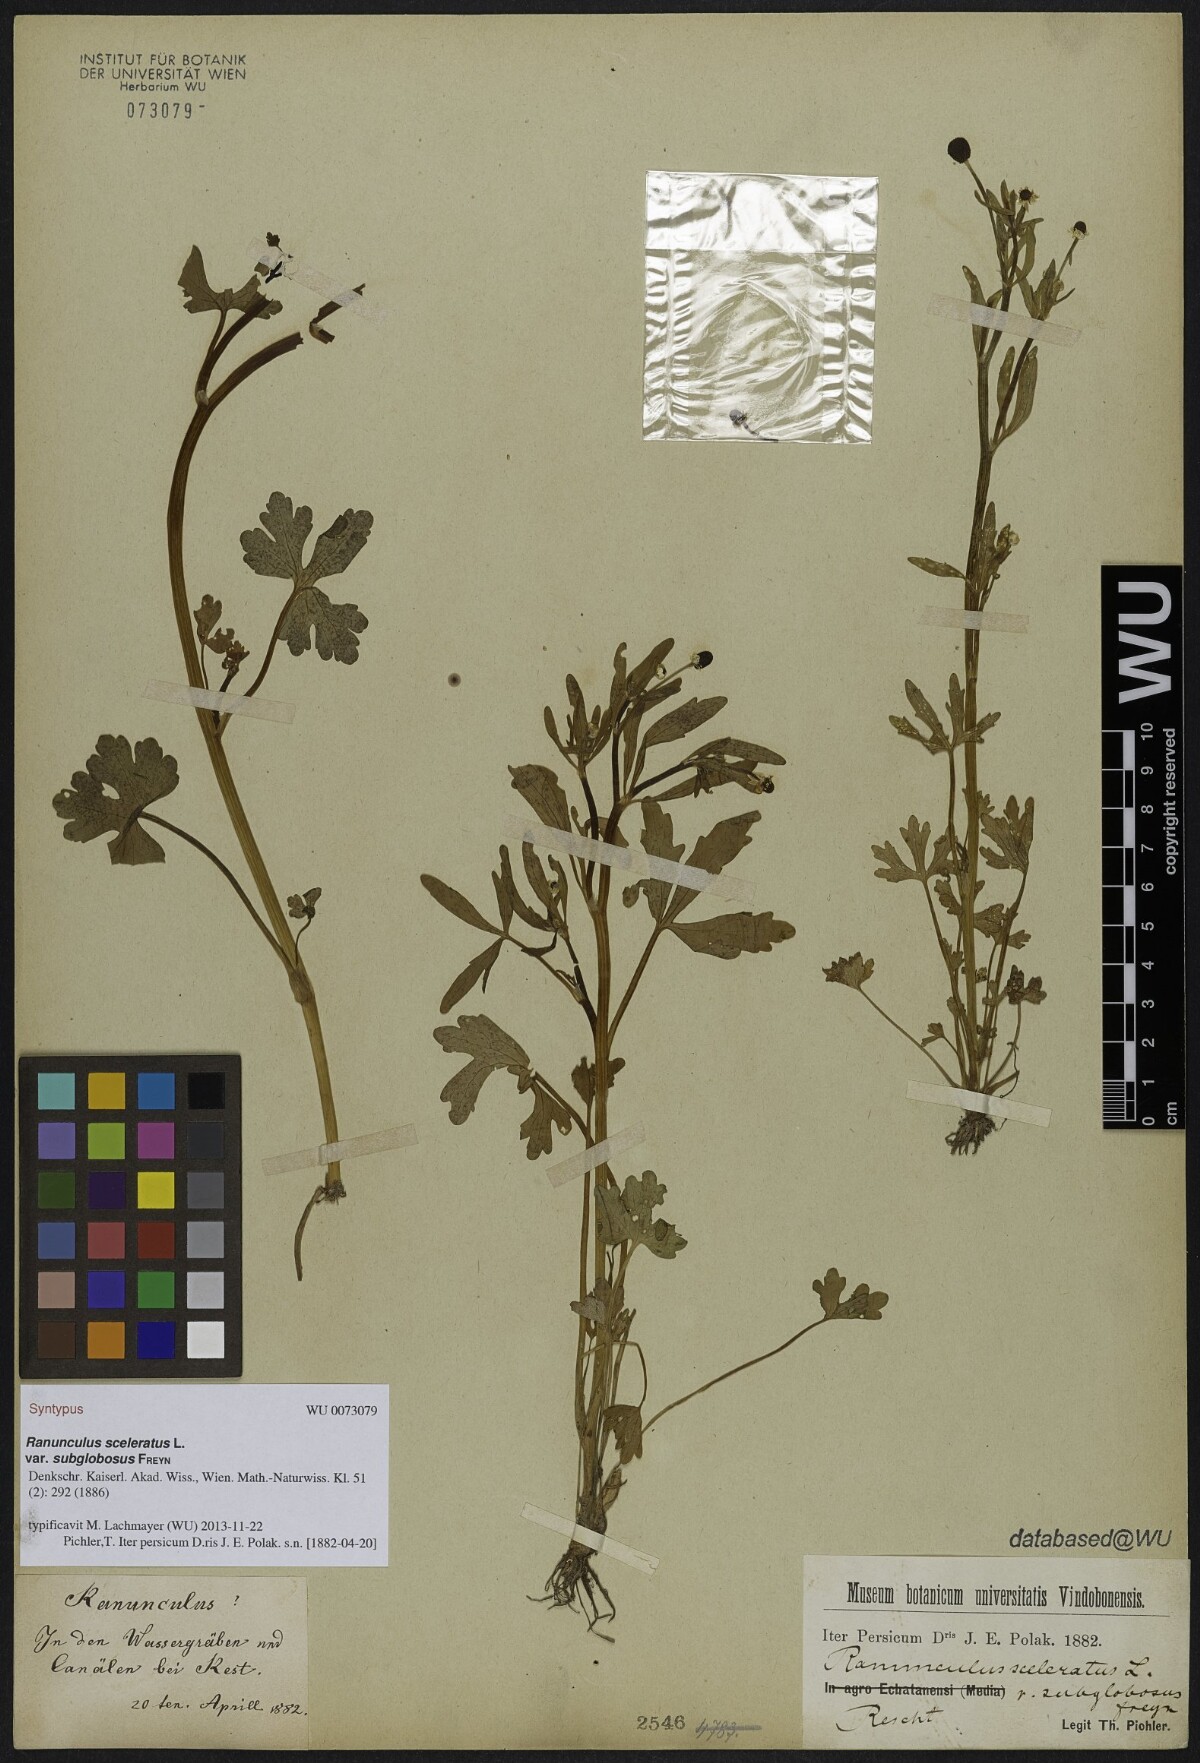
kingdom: Plantae
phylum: Tracheophyta
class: Magnoliopsida
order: Ranunculales
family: Ranunculaceae
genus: Ranunculus
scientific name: Ranunculus sceleratus
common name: Celery-leaved buttercup
